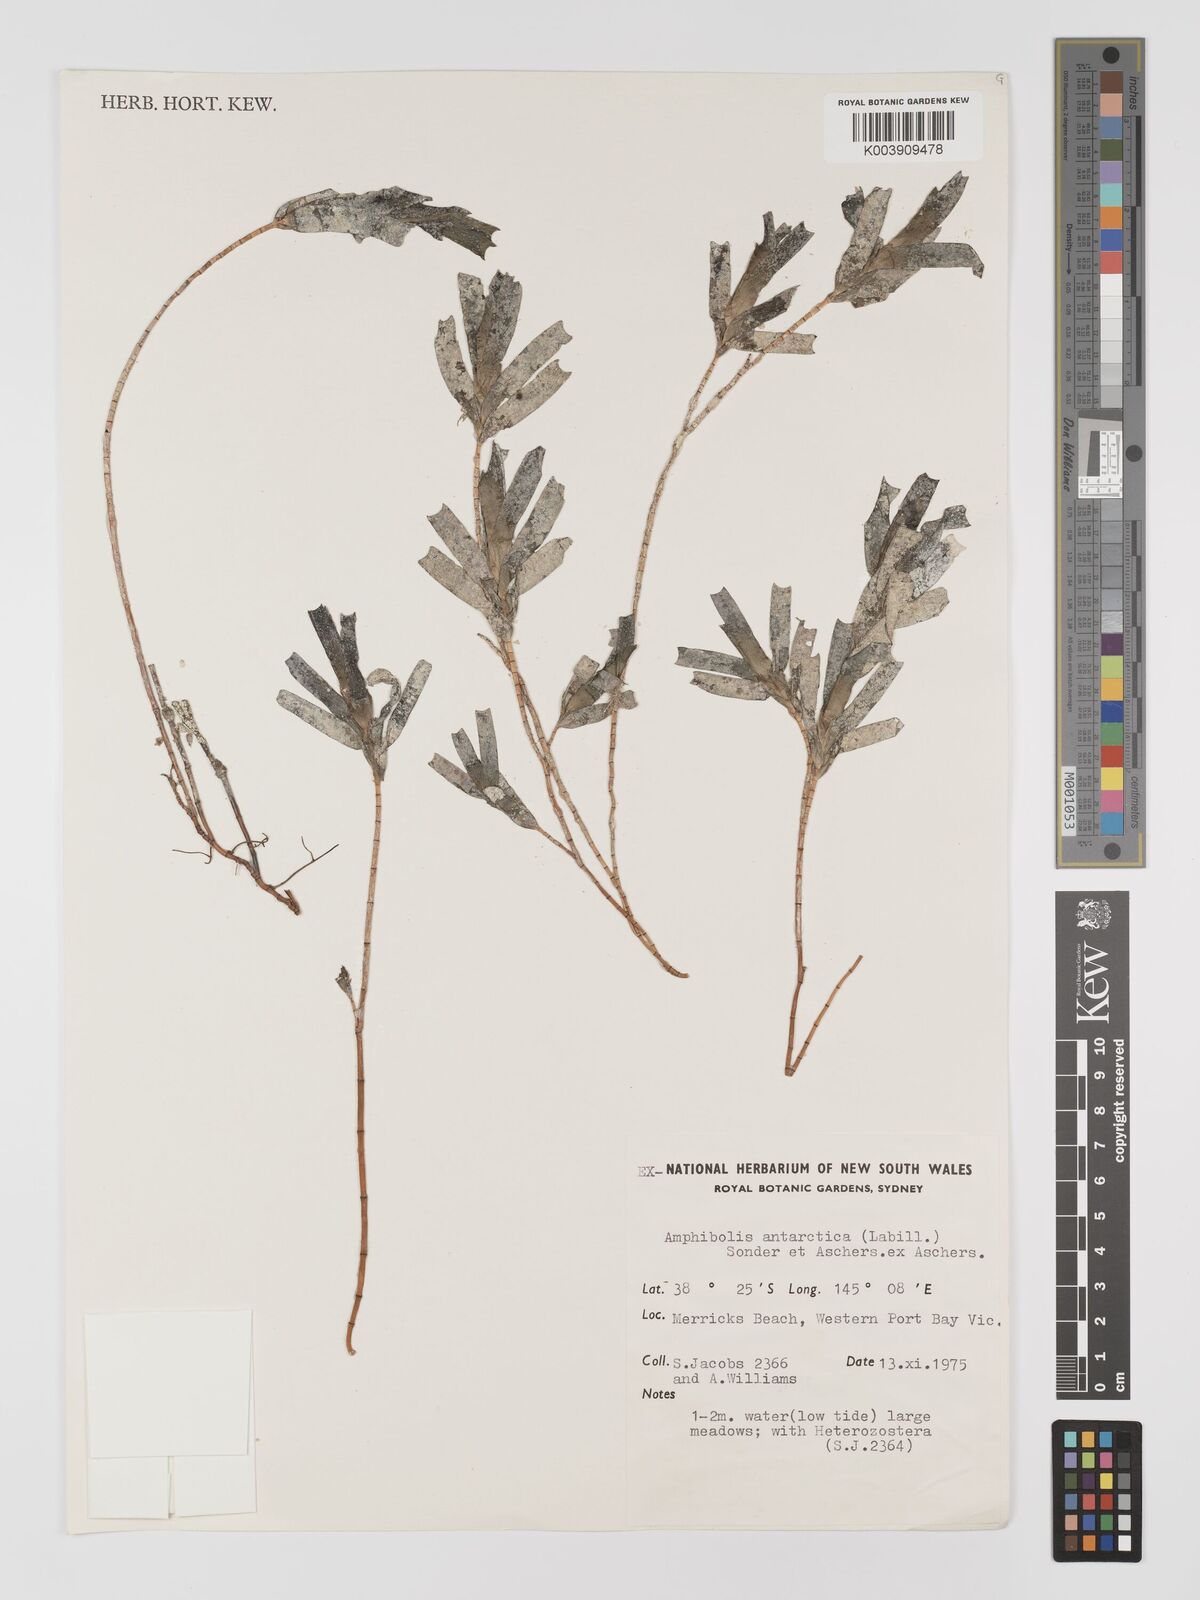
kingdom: Plantae
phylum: Tracheophyta
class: Liliopsida
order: Alismatales
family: Cymodoceaceae
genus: Amphibolis
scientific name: Amphibolis antarctica
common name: Species code: aa
